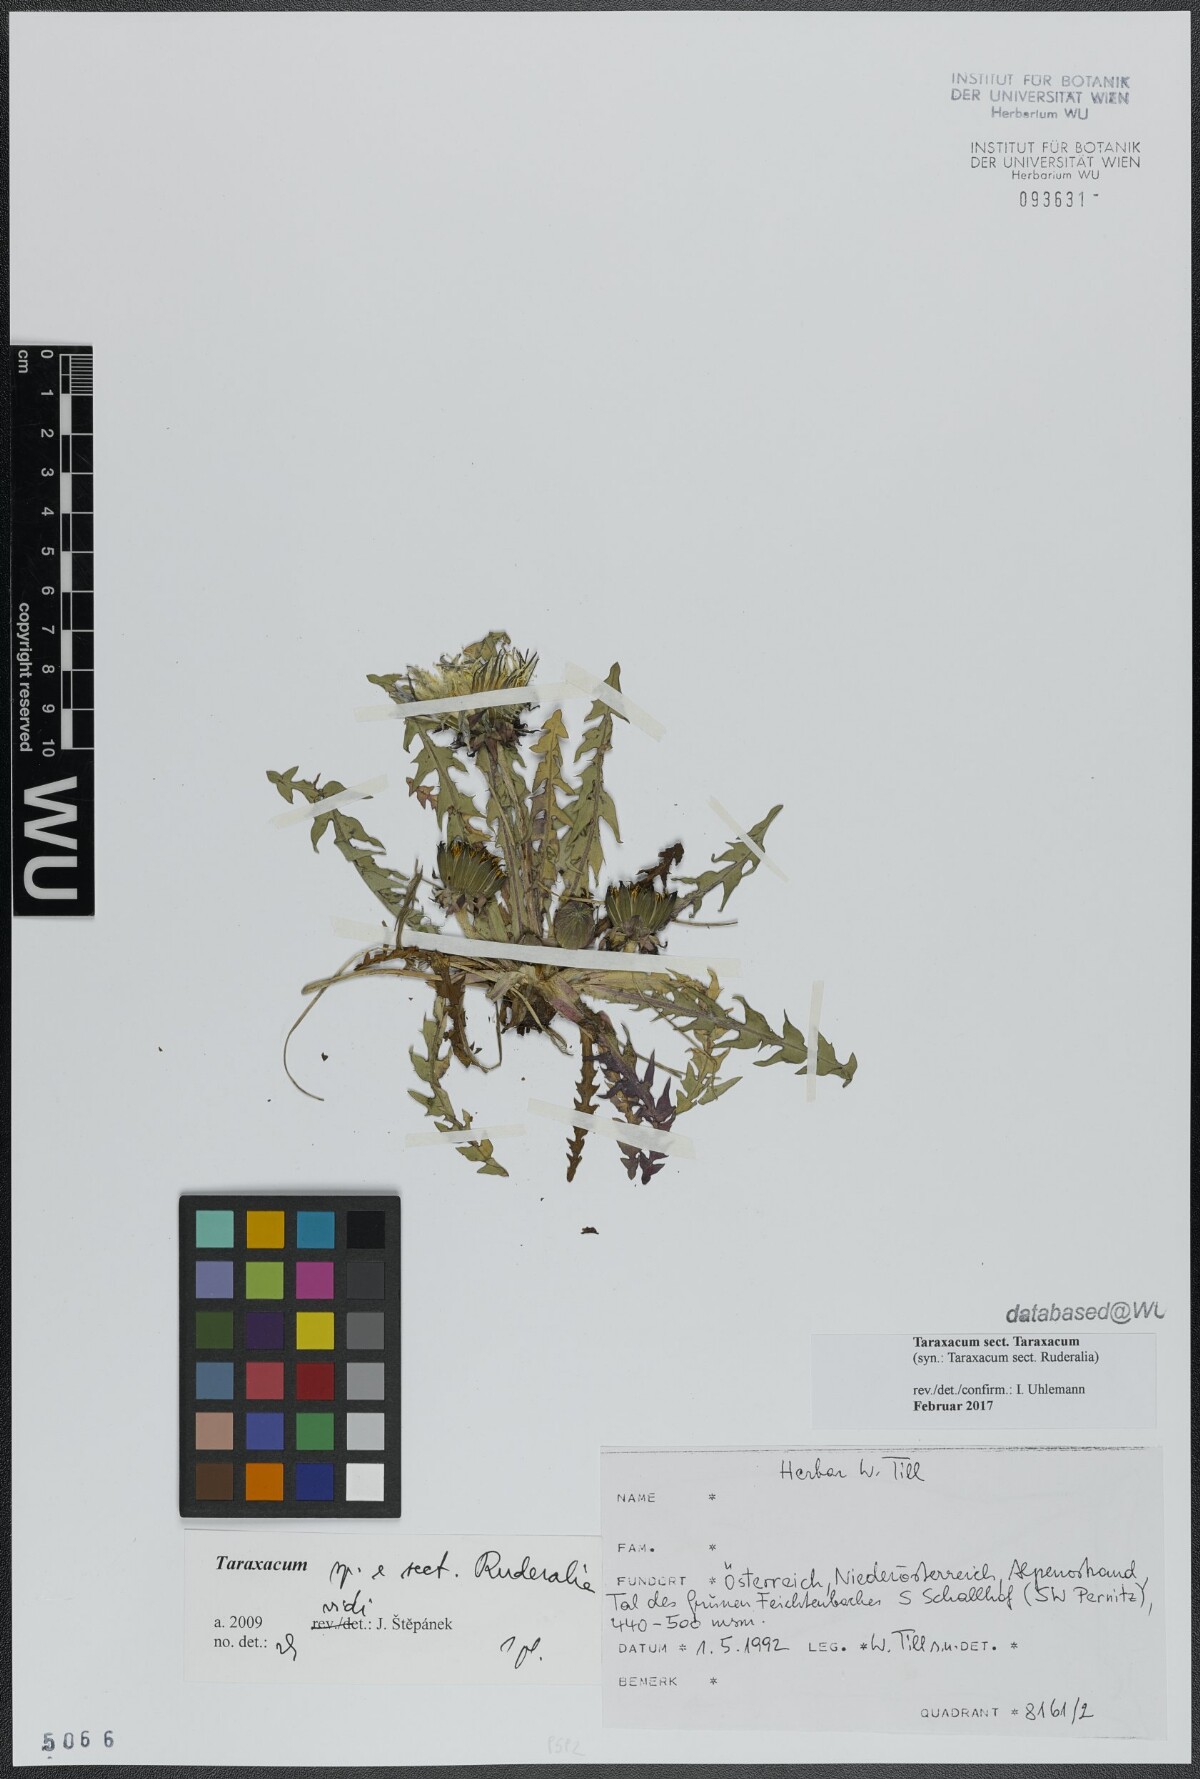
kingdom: Plantae
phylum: Tracheophyta
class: Magnoliopsida
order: Asterales
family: Asteraceae
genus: Taraxacum
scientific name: Taraxacum
